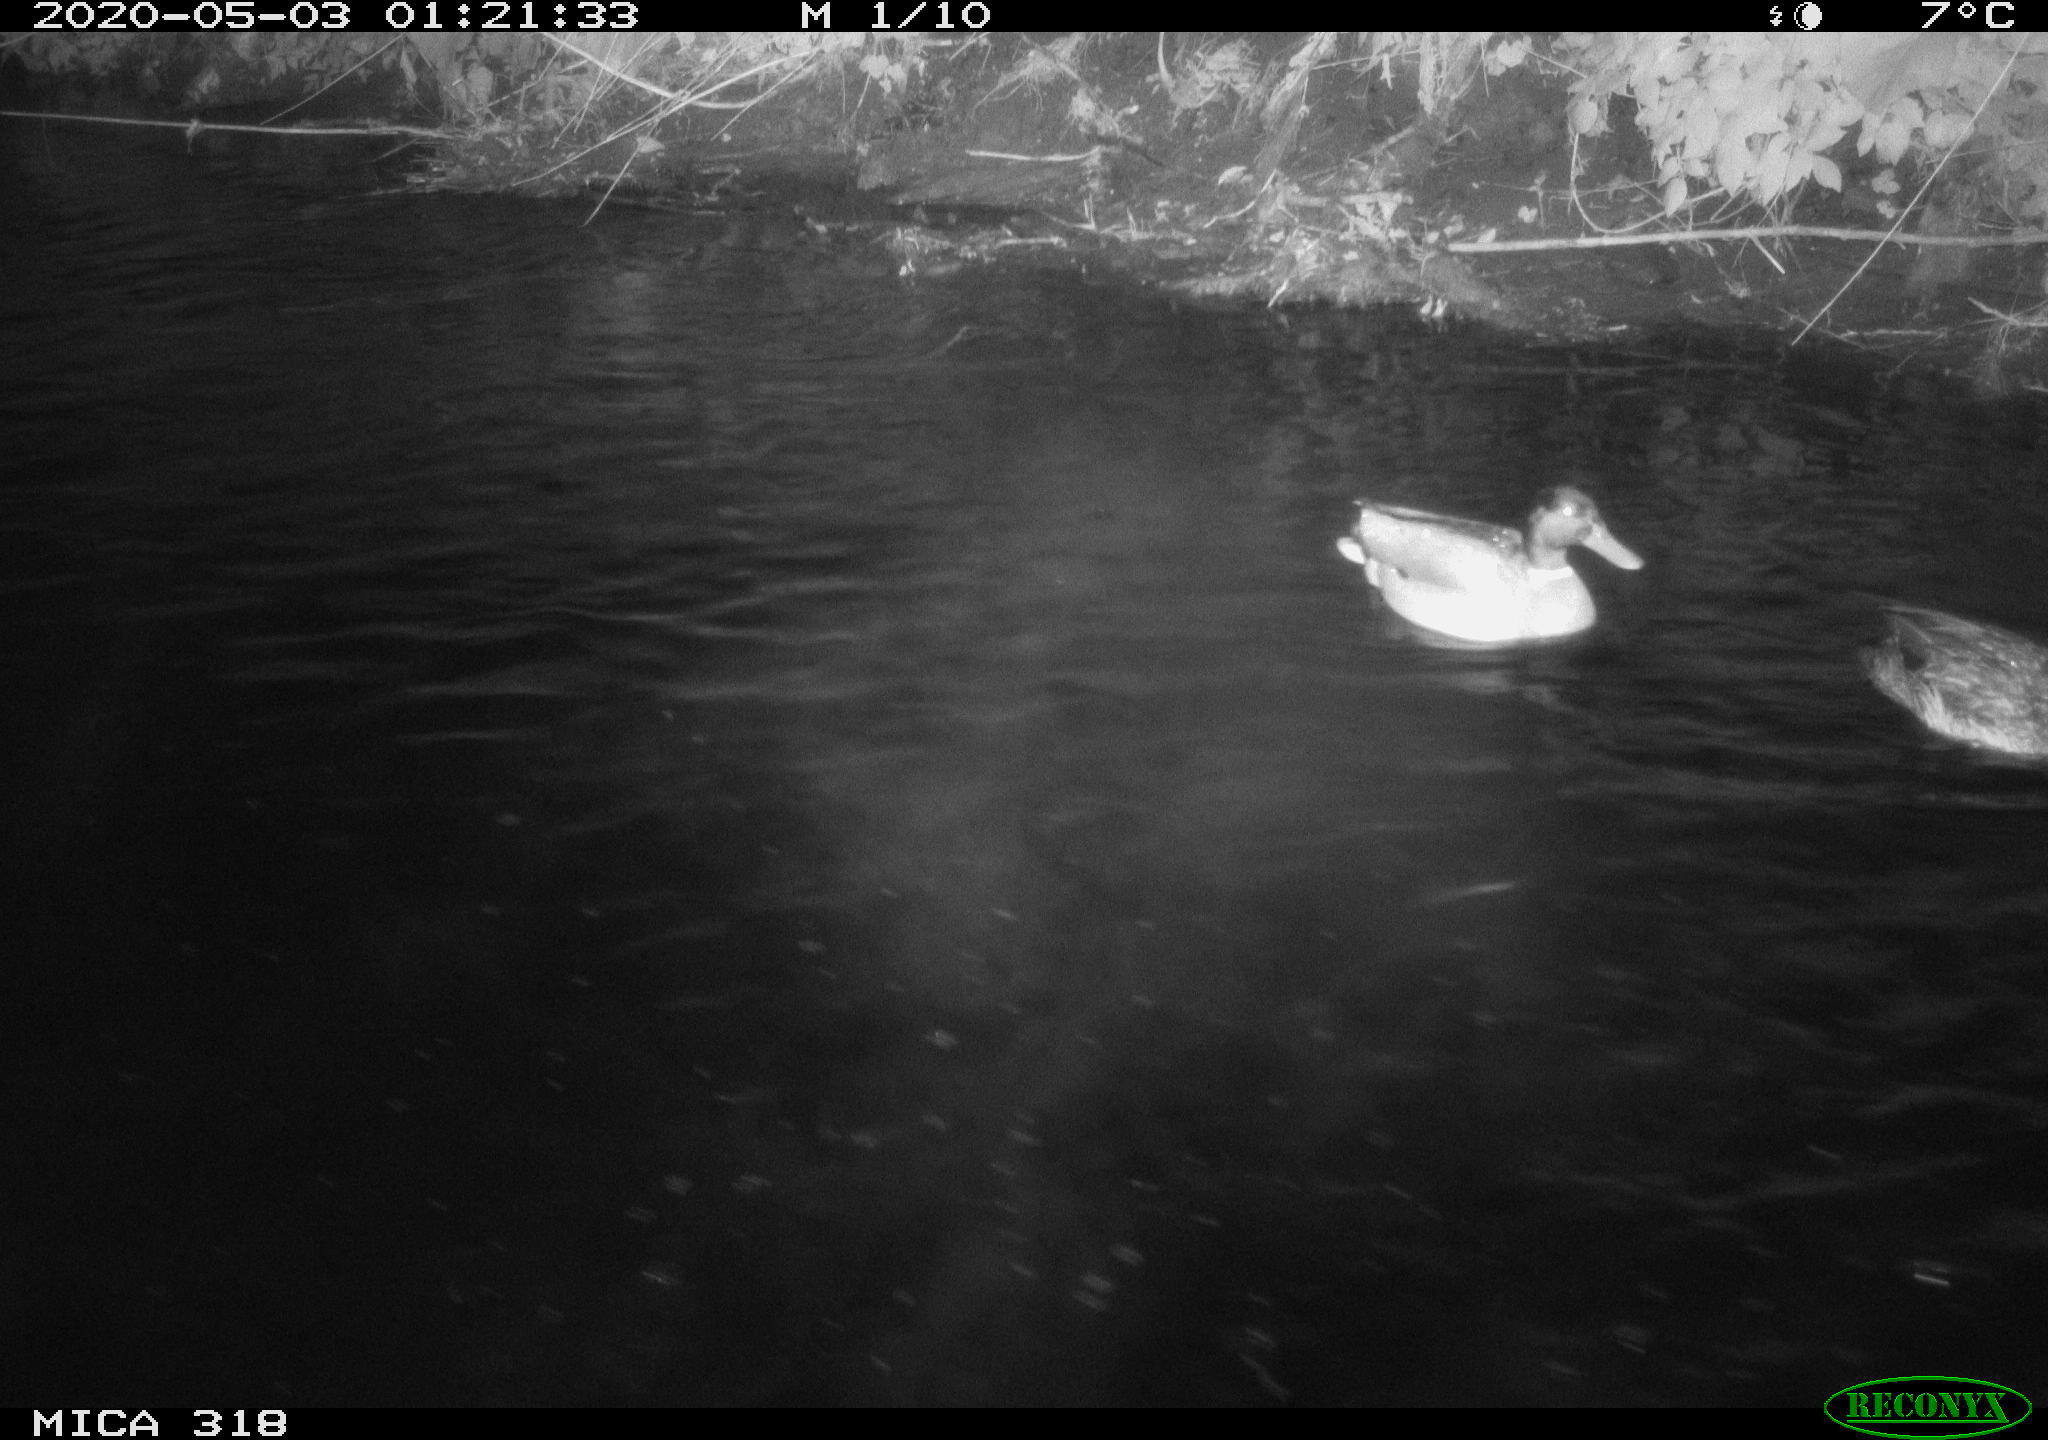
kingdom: Animalia
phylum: Chordata
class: Aves
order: Anseriformes
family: Anatidae
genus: Anas
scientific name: Anas platyrhynchos
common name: Mallard
